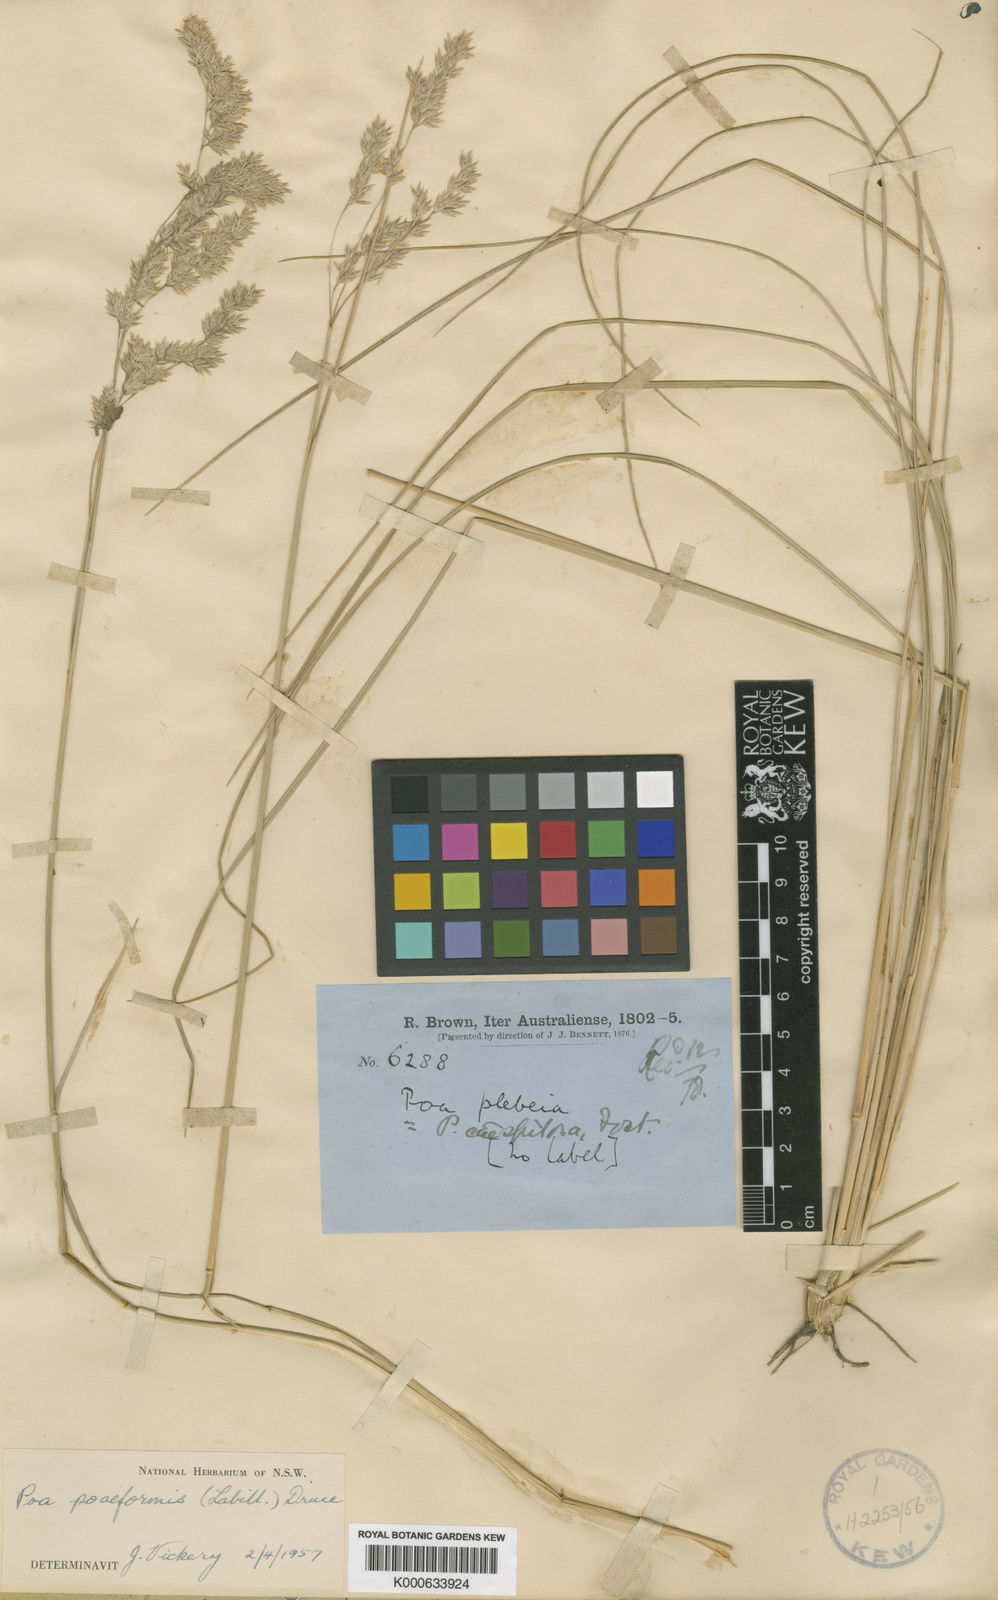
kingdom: Plantae
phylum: Tracheophyta
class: Liliopsida
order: Poales
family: Poaceae
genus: Poa
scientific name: Poa poiformis
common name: Tussock poa
